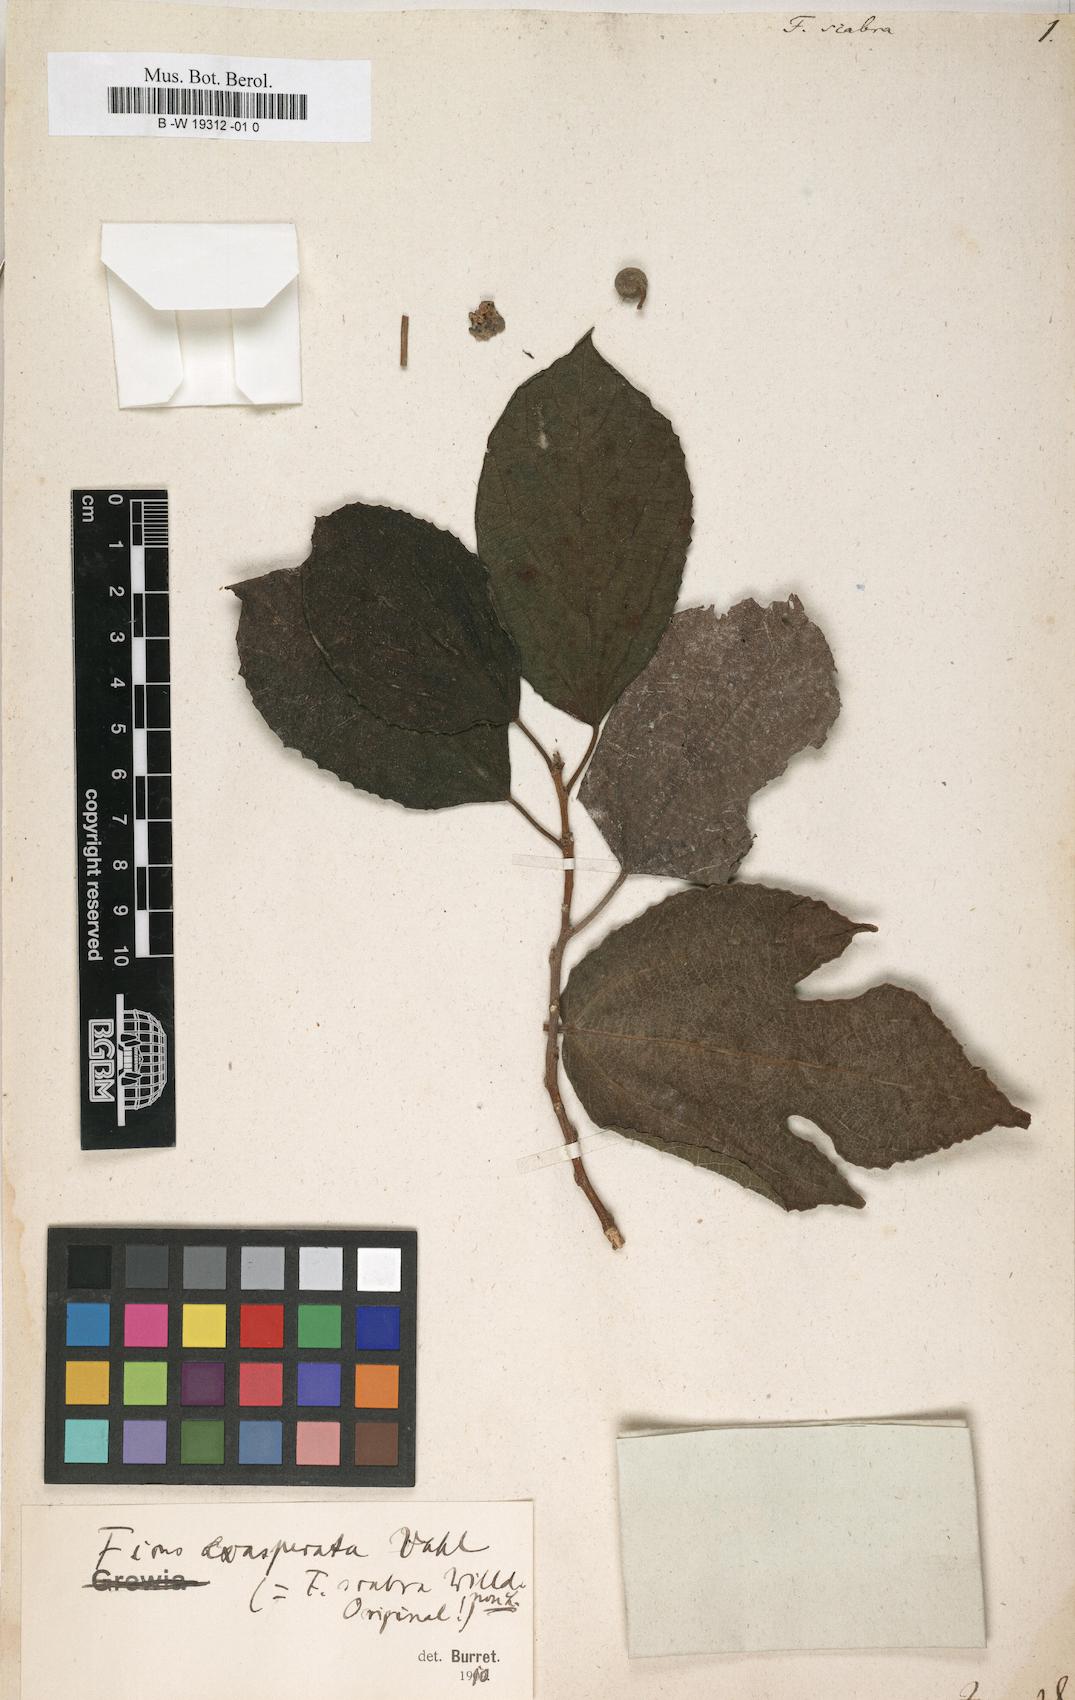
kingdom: Plantae
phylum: Tracheophyta
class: Magnoliopsida
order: Rosales
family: Moraceae
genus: Ficus
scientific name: Ficus scabra
